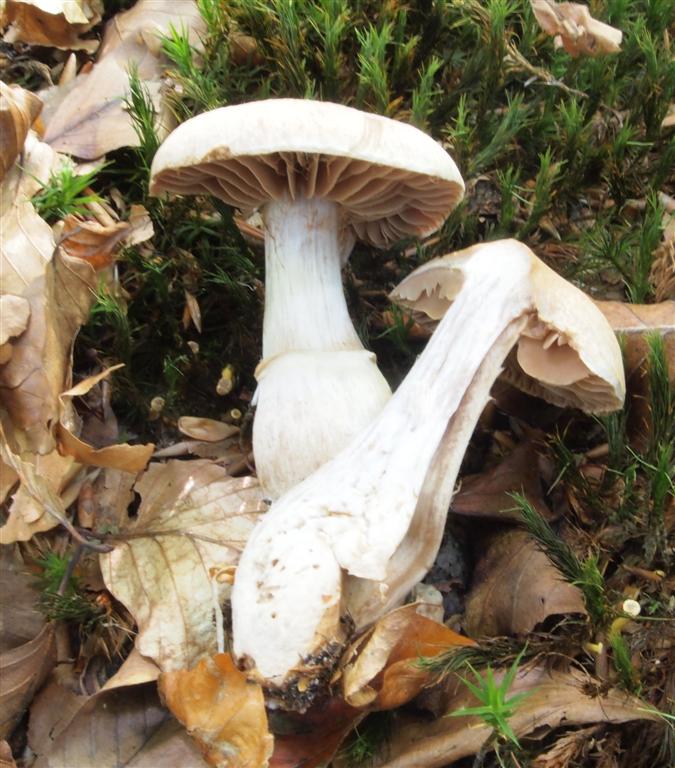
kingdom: Fungi
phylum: Basidiomycota
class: Agaricomycetes
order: Agaricales
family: Cortinariaceae
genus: Cortinarius
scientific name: Cortinarius torvus
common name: champignonagtig slørhat
